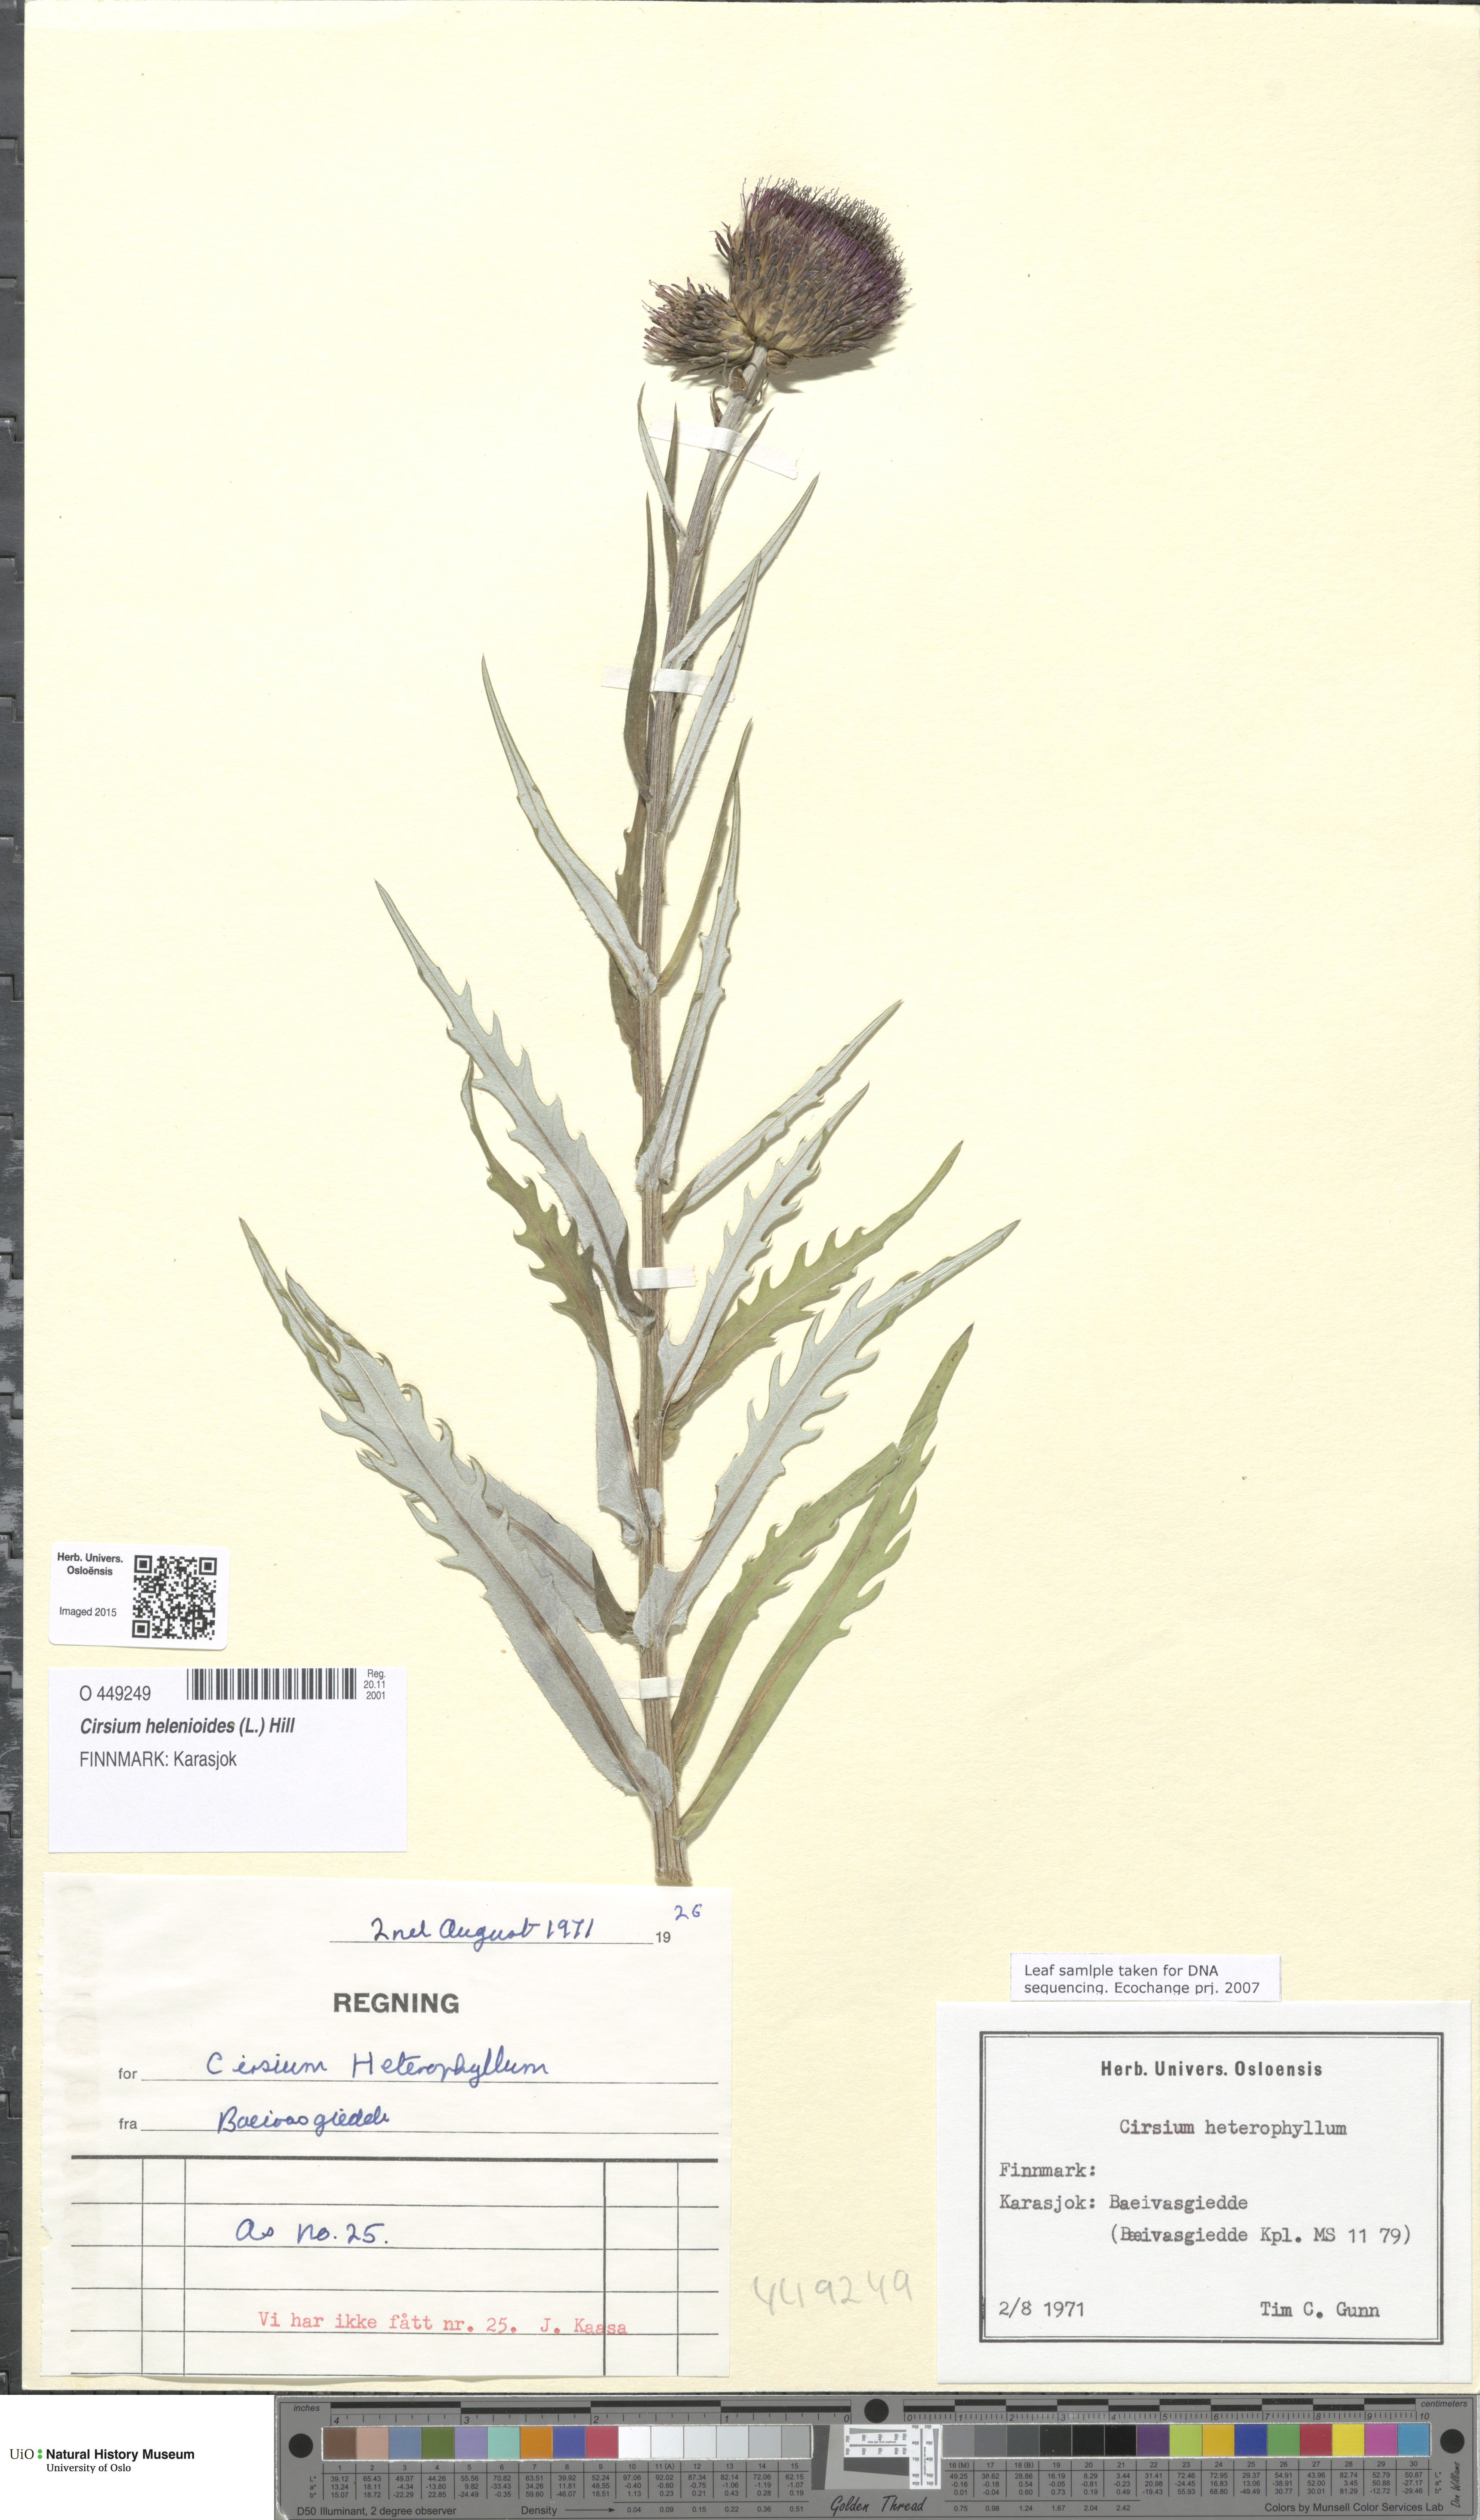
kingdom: Plantae
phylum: Tracheophyta
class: Magnoliopsida
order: Asterales
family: Asteraceae
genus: Cirsium
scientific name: Cirsium heterophyllum
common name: Melancholy thistle
